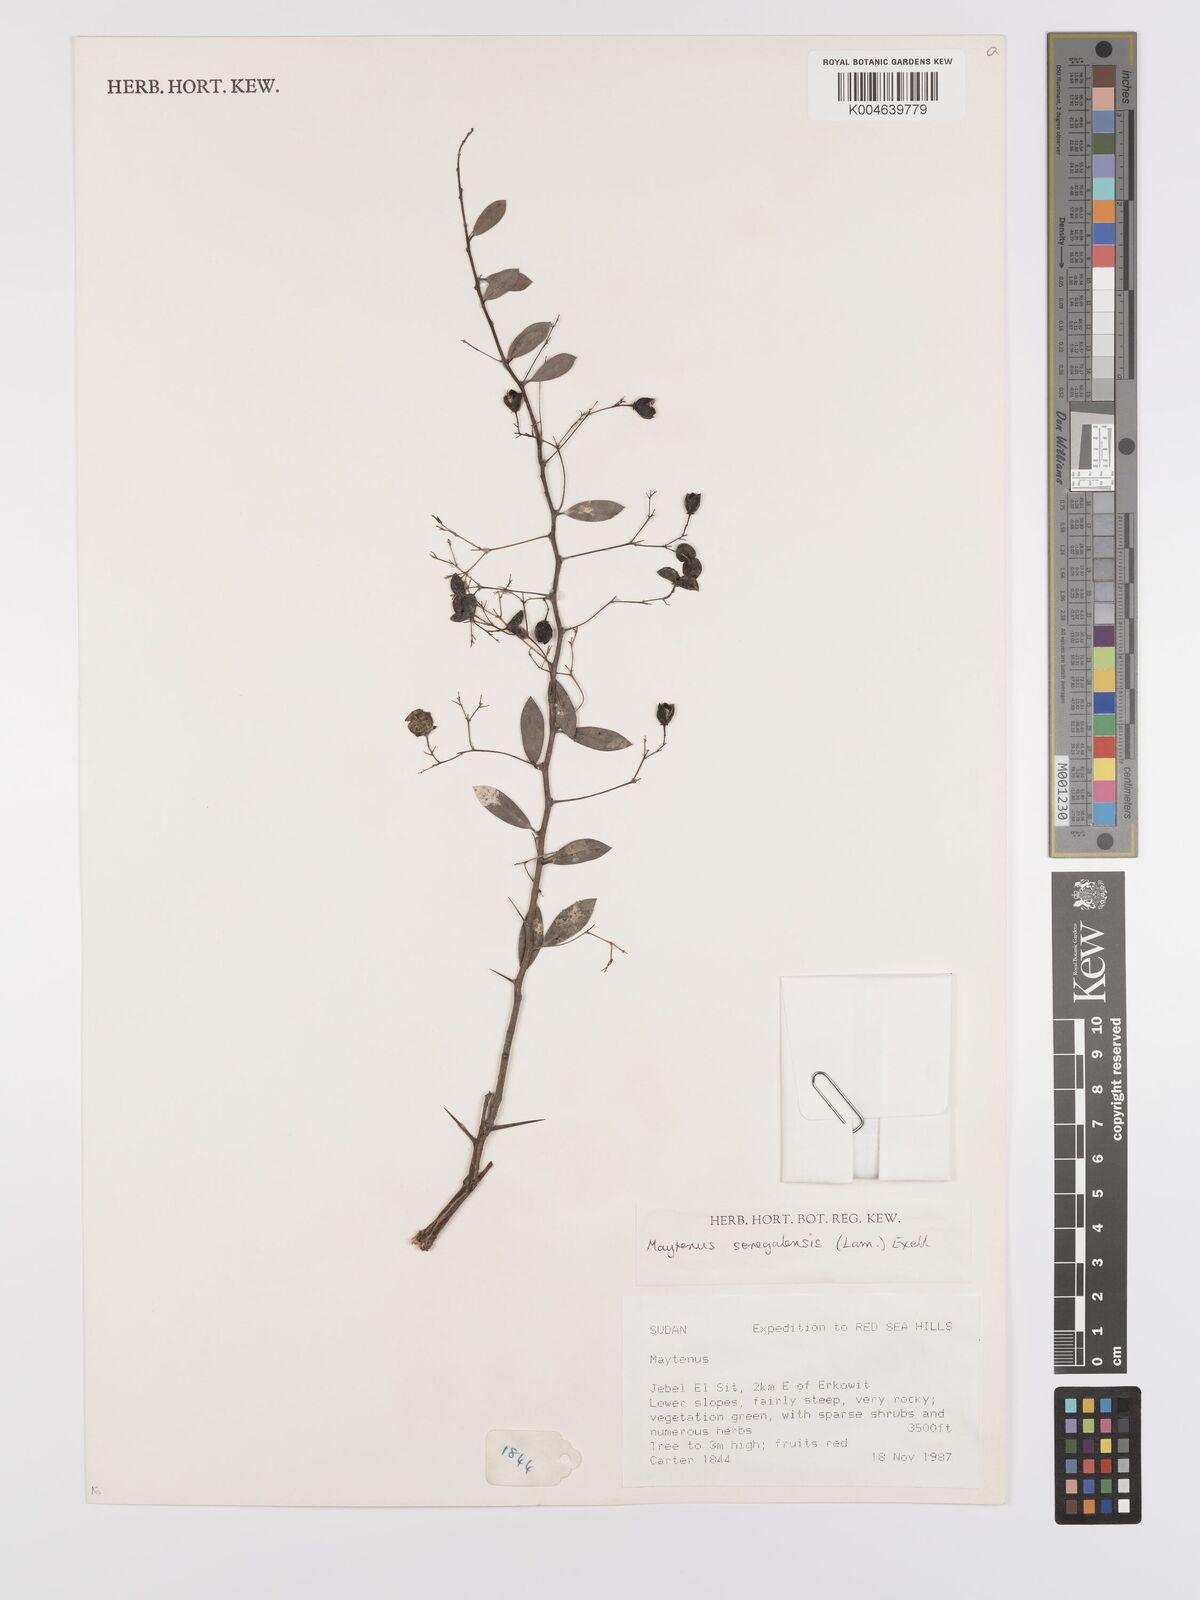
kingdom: Plantae
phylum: Tracheophyta
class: Magnoliopsida
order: Celastrales
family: Celastraceae
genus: Gymnosporia
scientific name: Gymnosporia senegalensis
